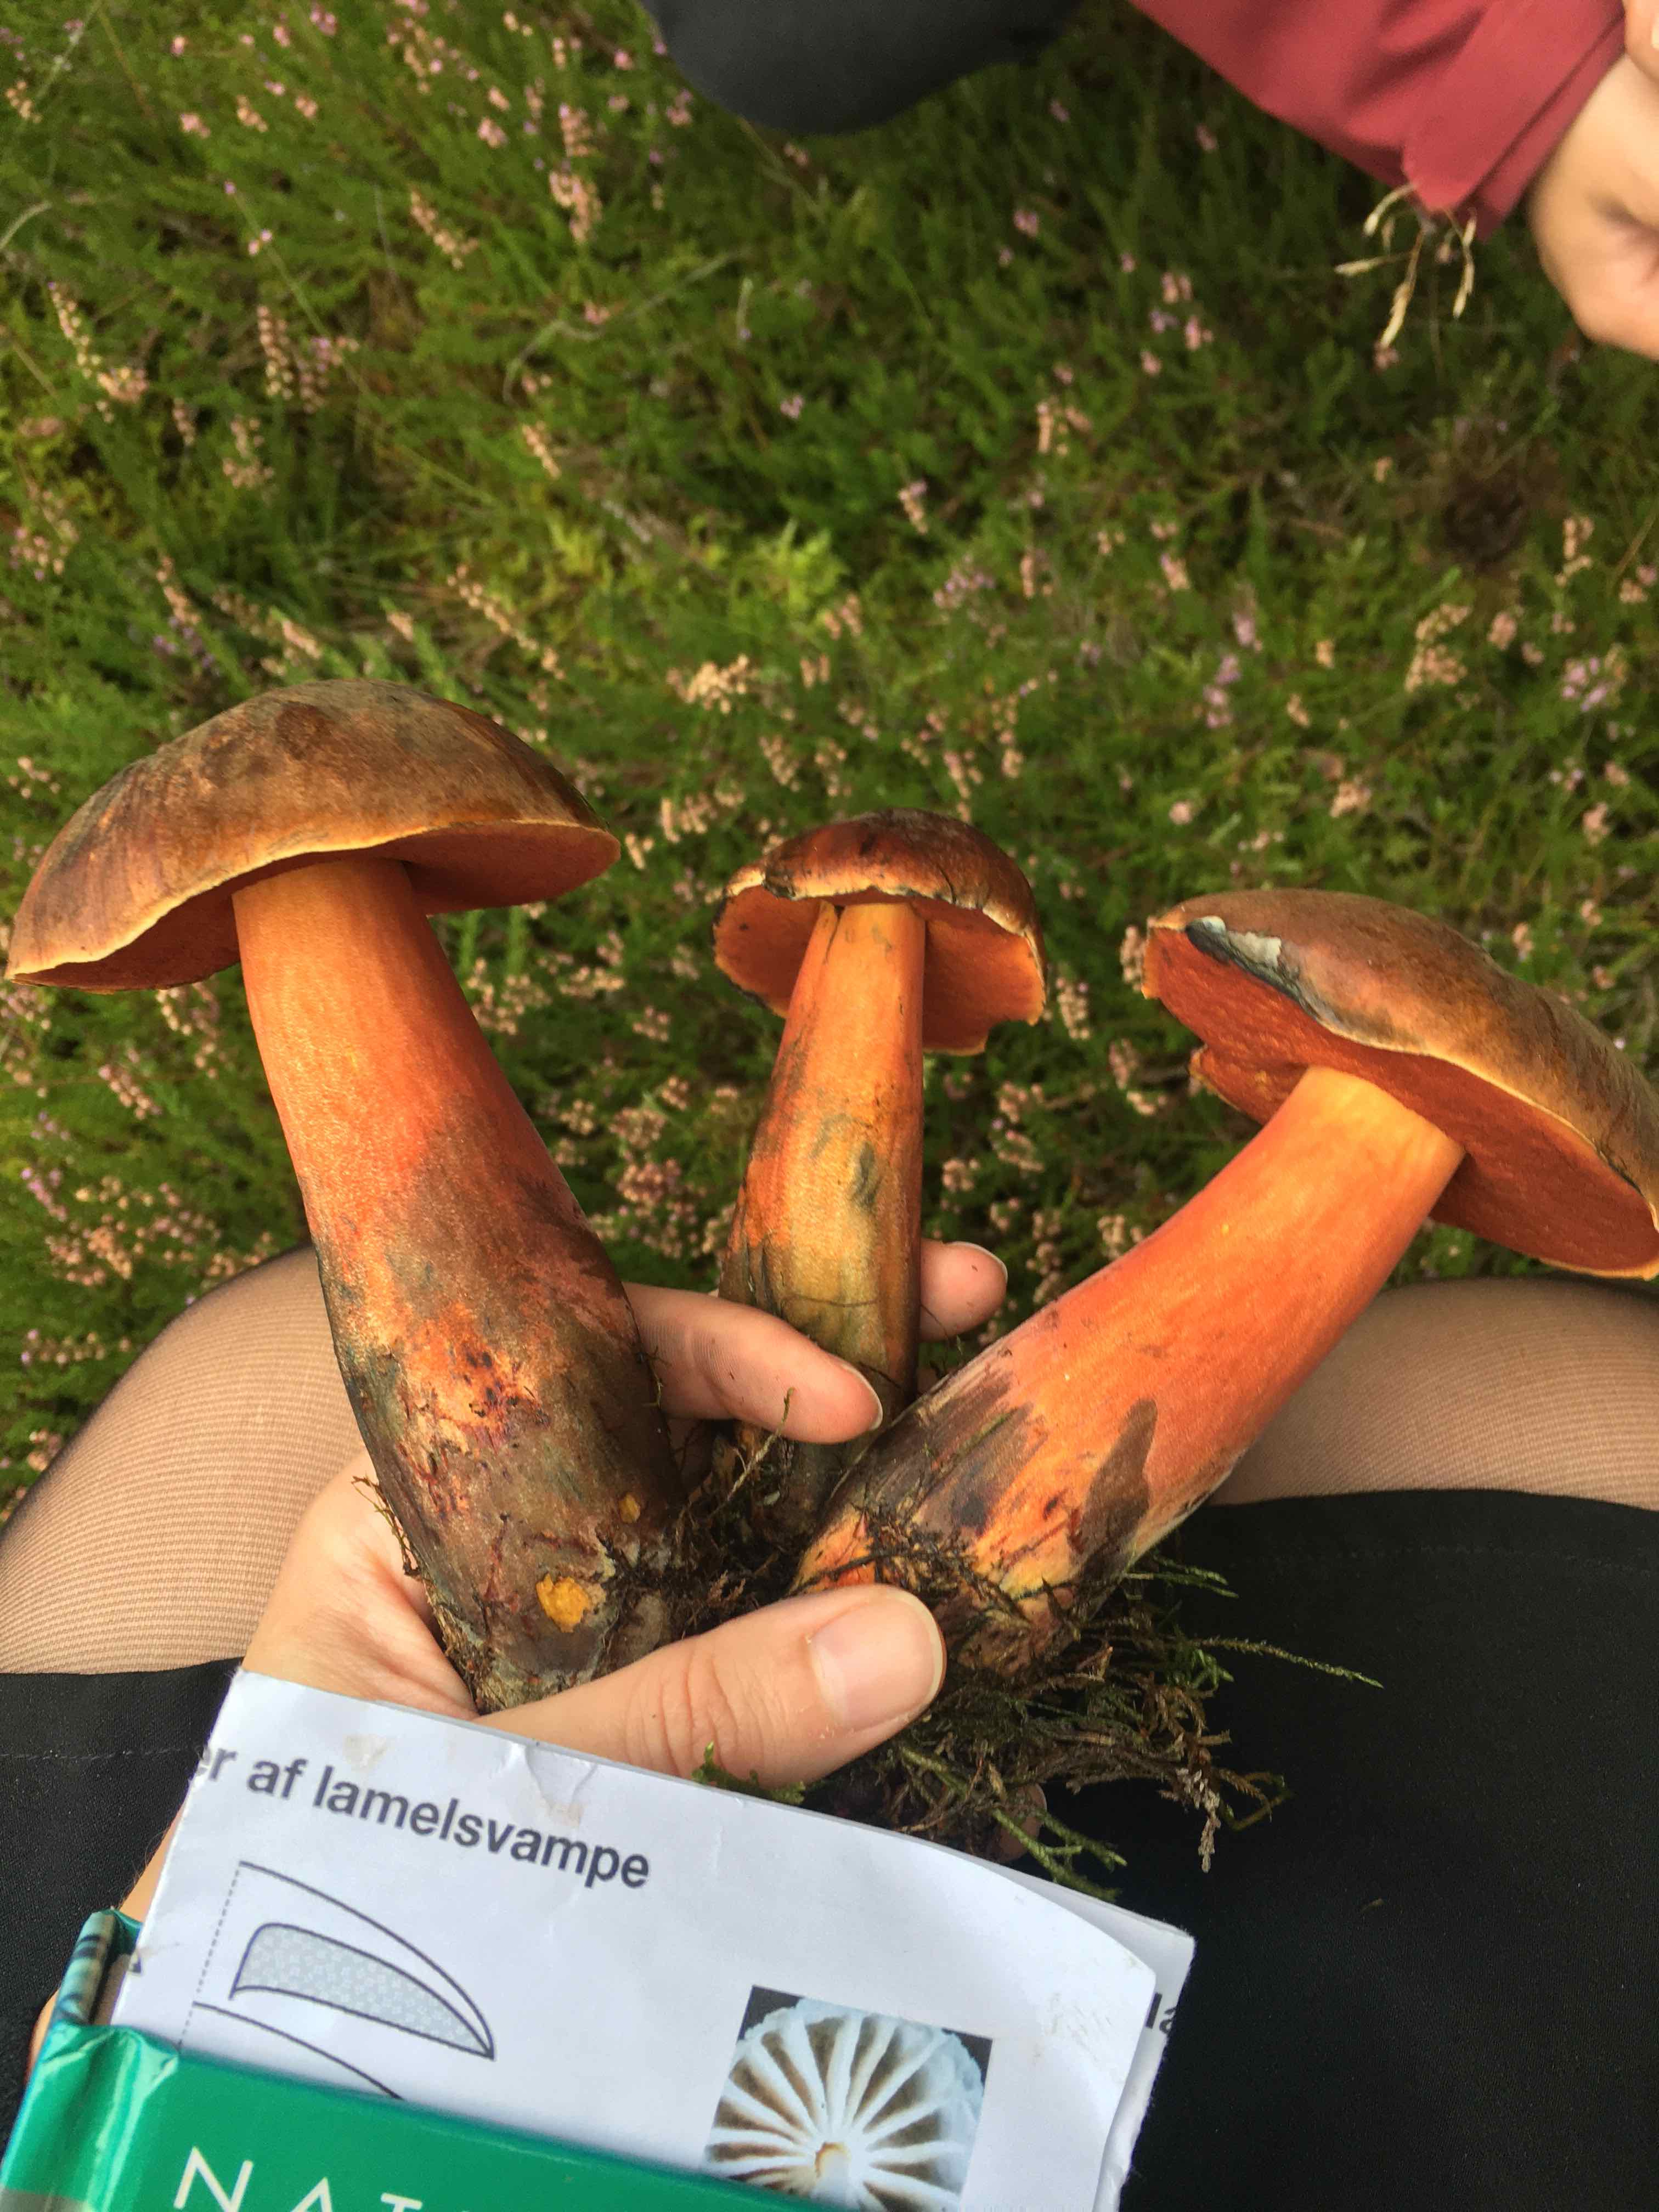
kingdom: Fungi
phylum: Basidiomycota
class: Agaricomycetes
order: Boletales
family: Boletaceae
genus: Neoboletus
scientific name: Neoboletus erythropus
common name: punktstokket indigorørhat
